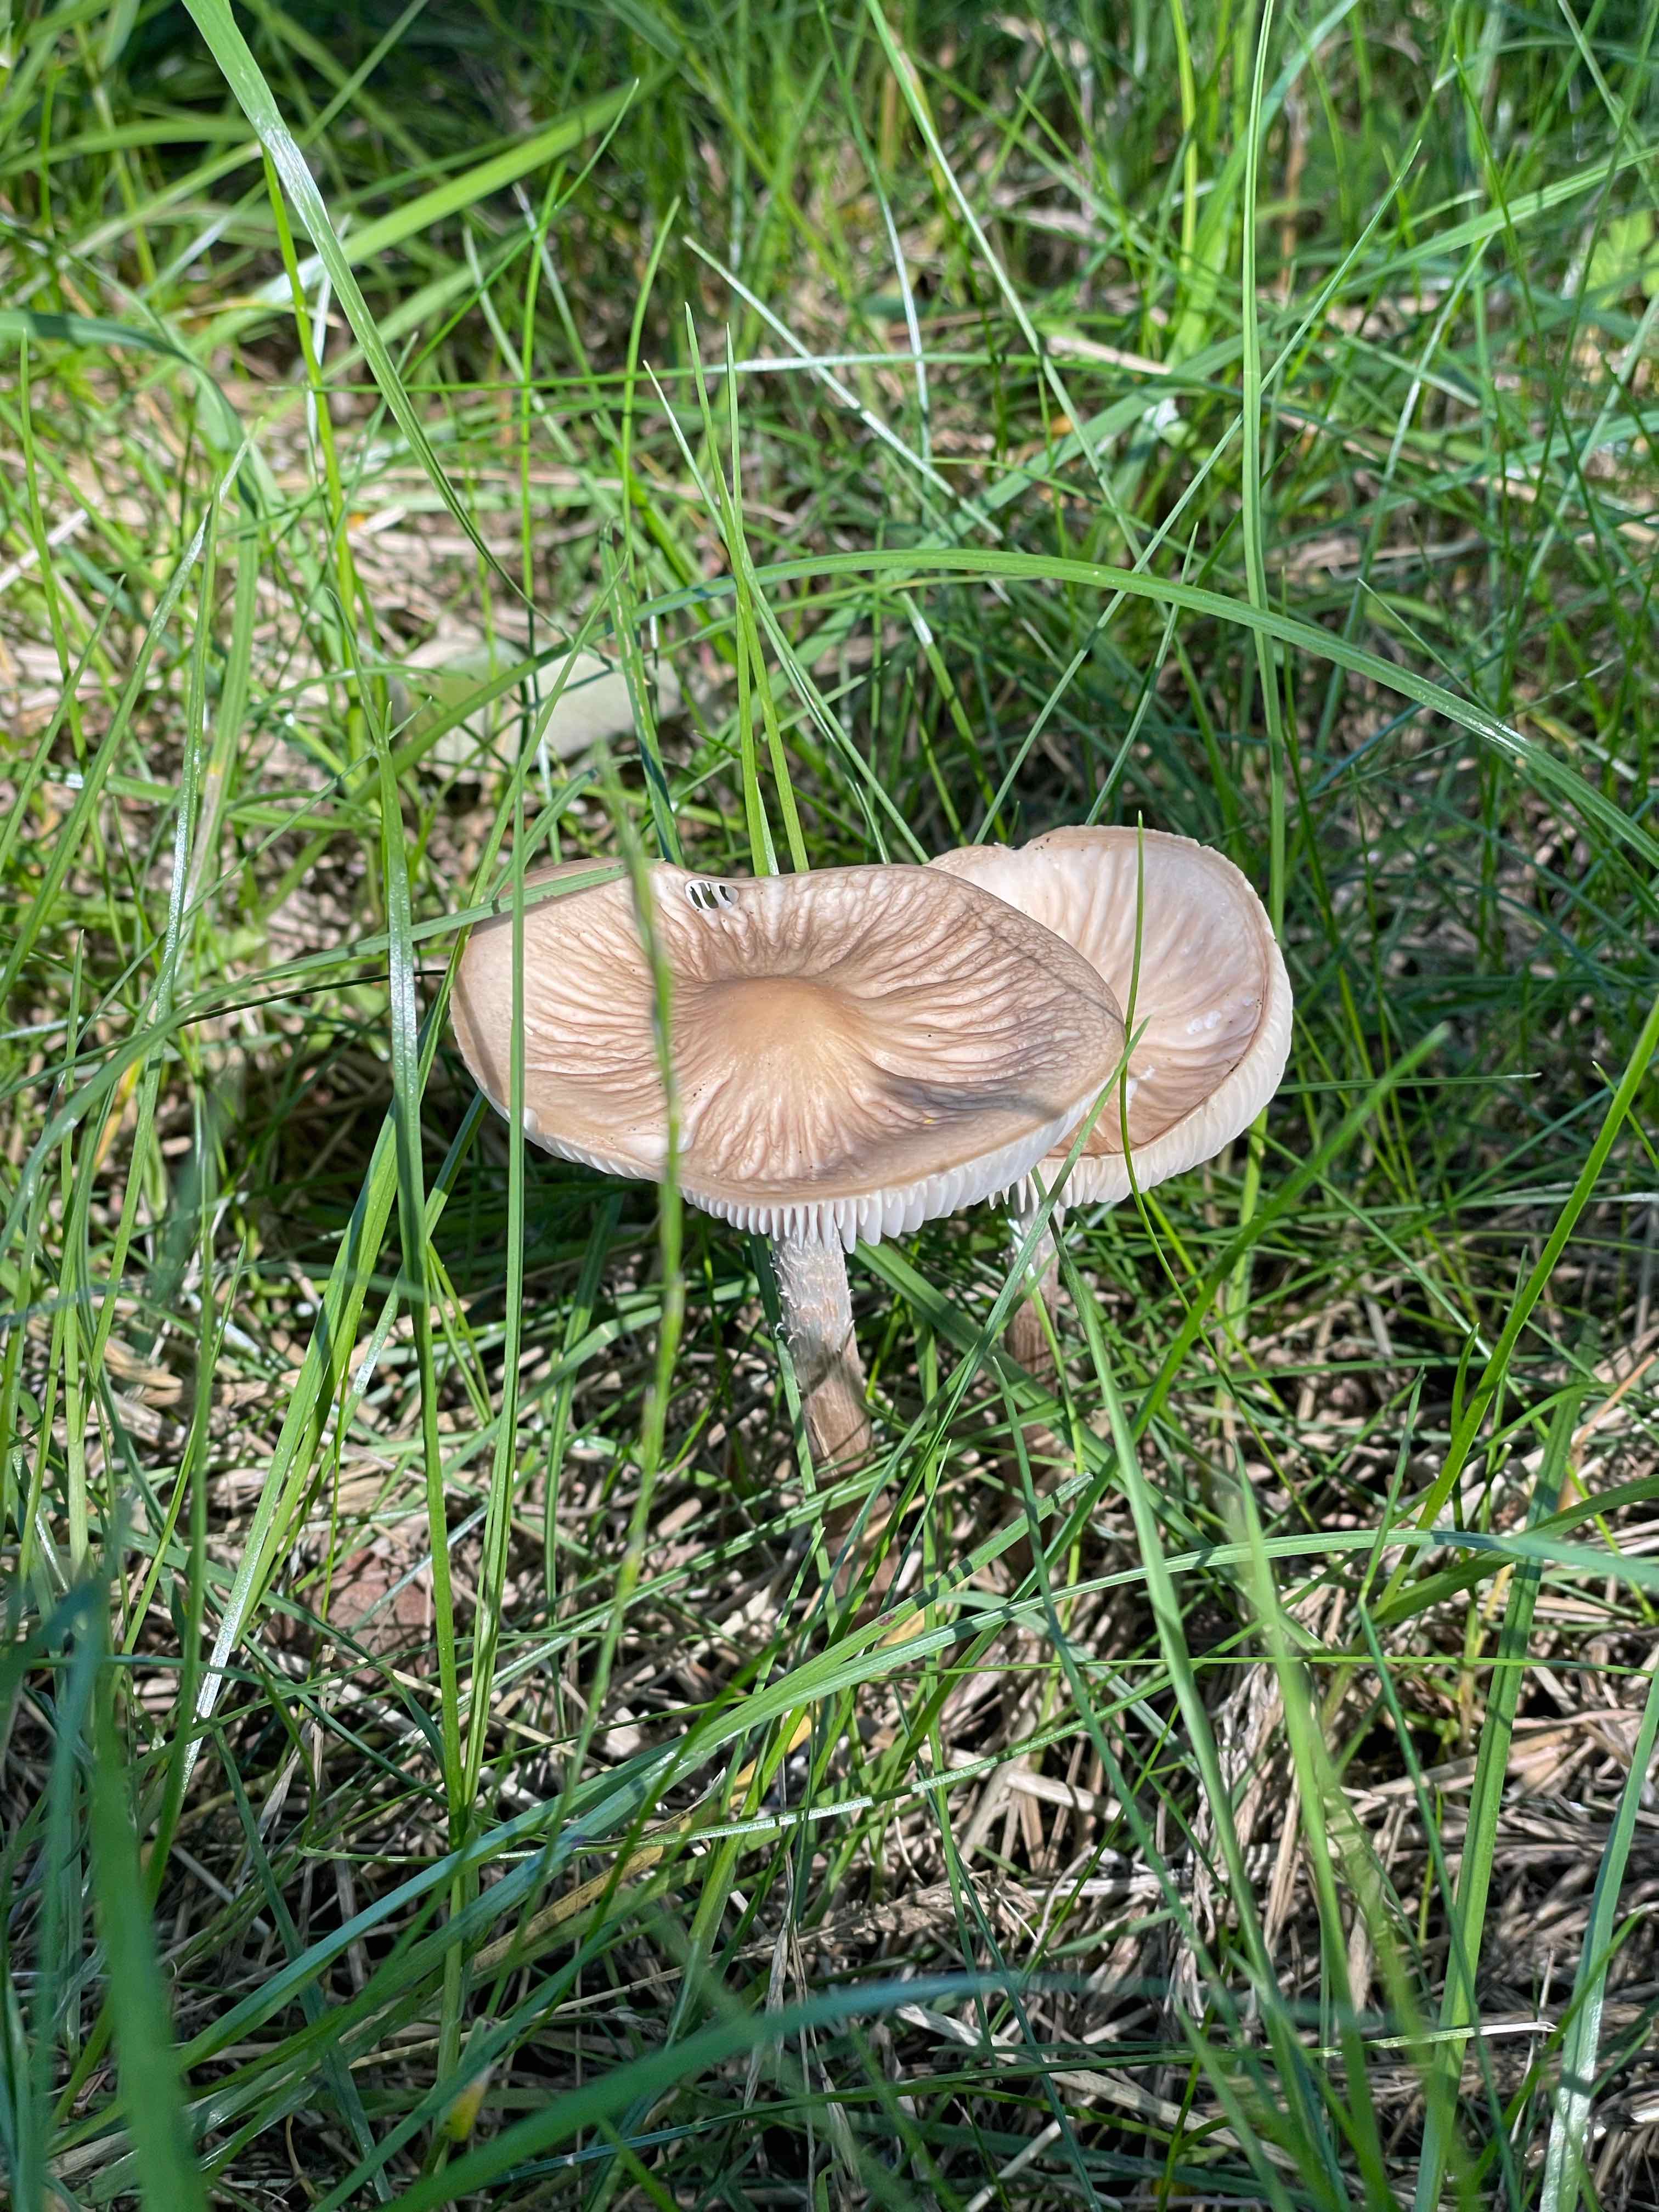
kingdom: Fungi
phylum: Basidiomycota
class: Agaricomycetes
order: Agaricales
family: Physalacriaceae
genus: Hymenopellis
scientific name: Hymenopellis radicata
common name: almindelig pælerodshat
